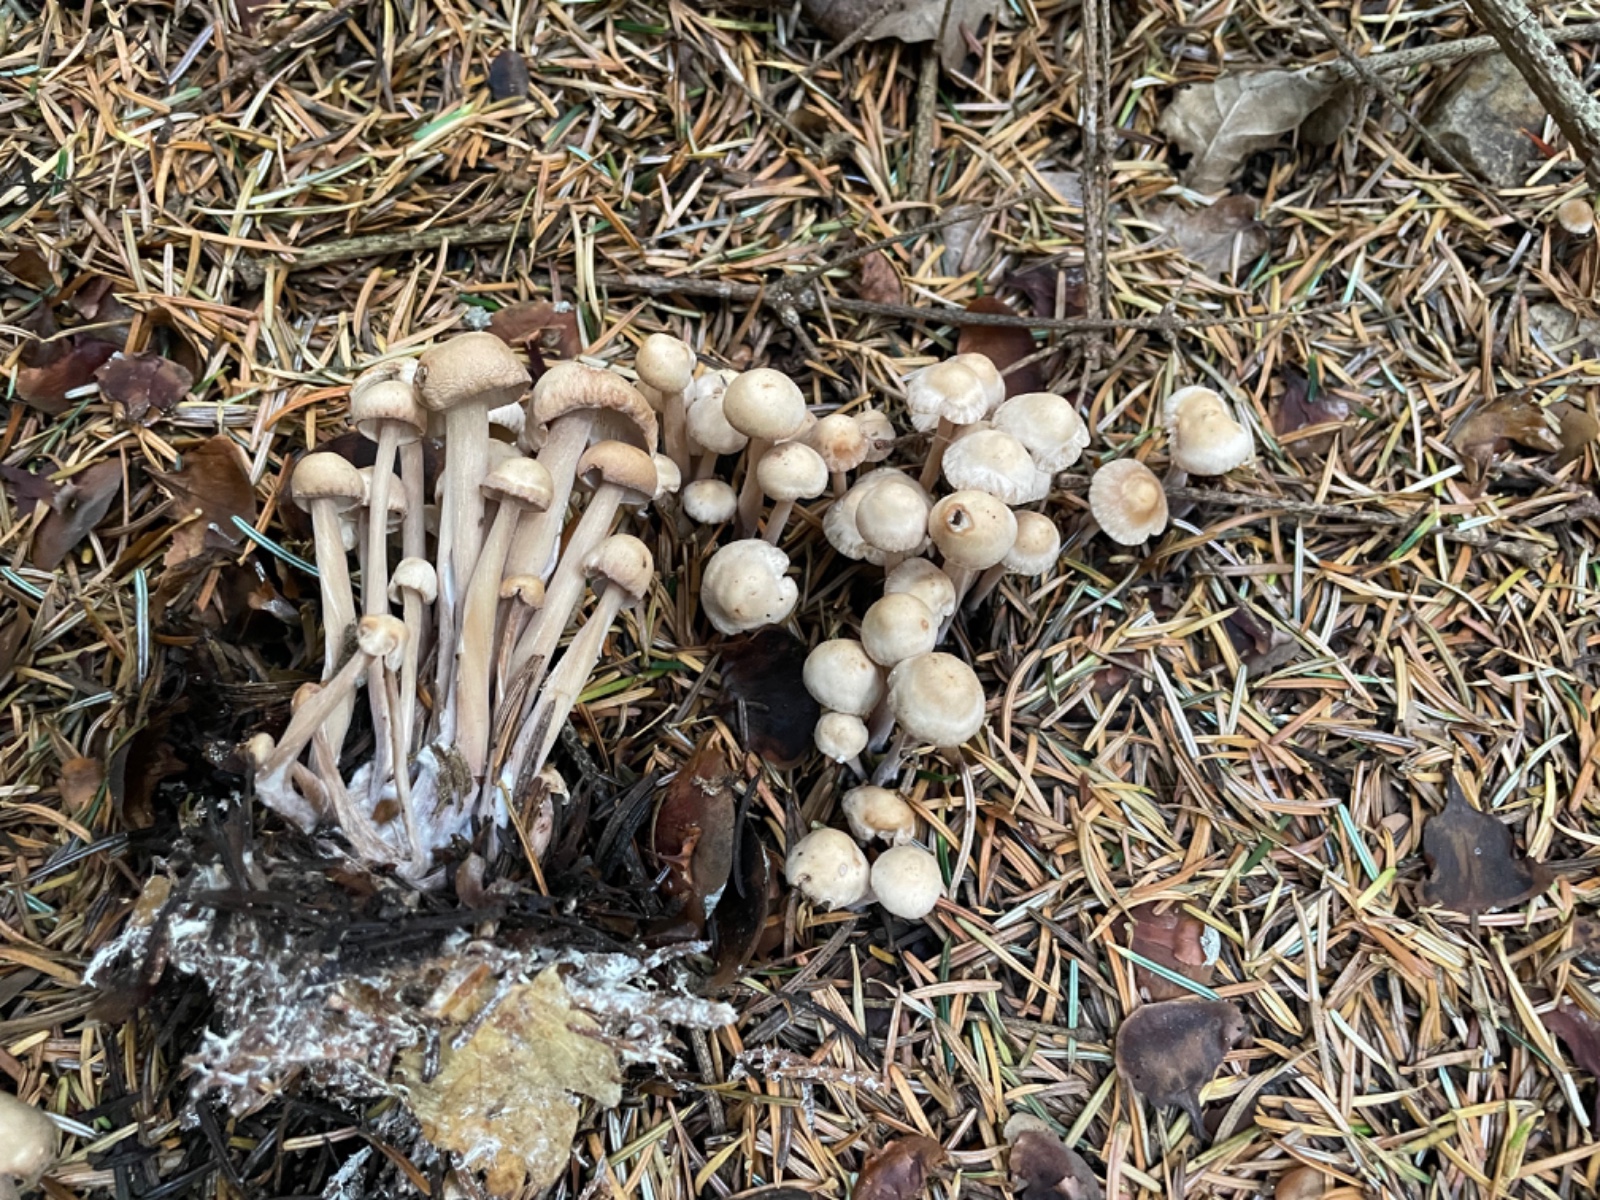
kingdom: Fungi
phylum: Basidiomycota
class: Agaricomycetes
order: Agaricales
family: Omphalotaceae
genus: Collybiopsis
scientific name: Collybiopsis confluens
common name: knippe-fladhat
